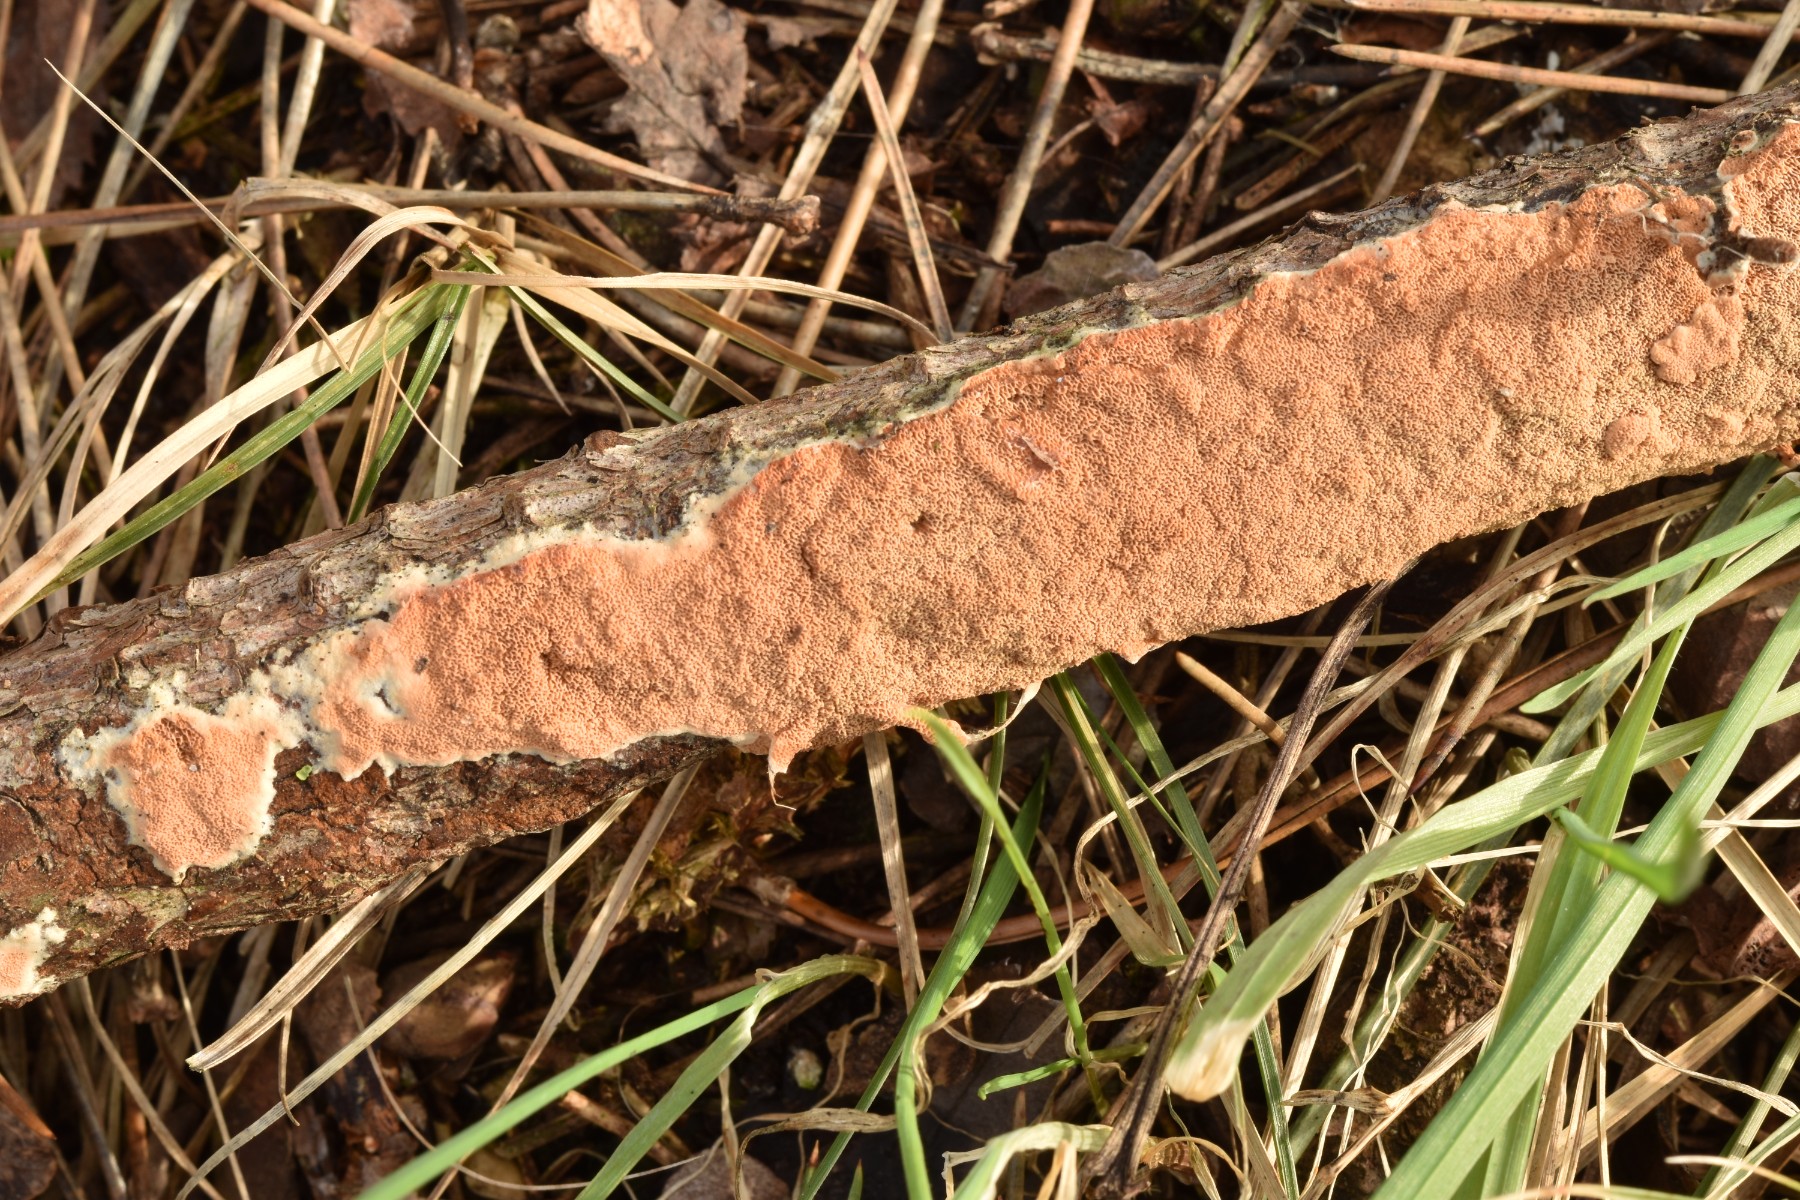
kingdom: Fungi
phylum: Basidiomycota
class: Agaricomycetes
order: Polyporales
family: Irpicaceae
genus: Meruliopsis
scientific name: Meruliopsis taxicola
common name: purpurbrun foldporesvamp
